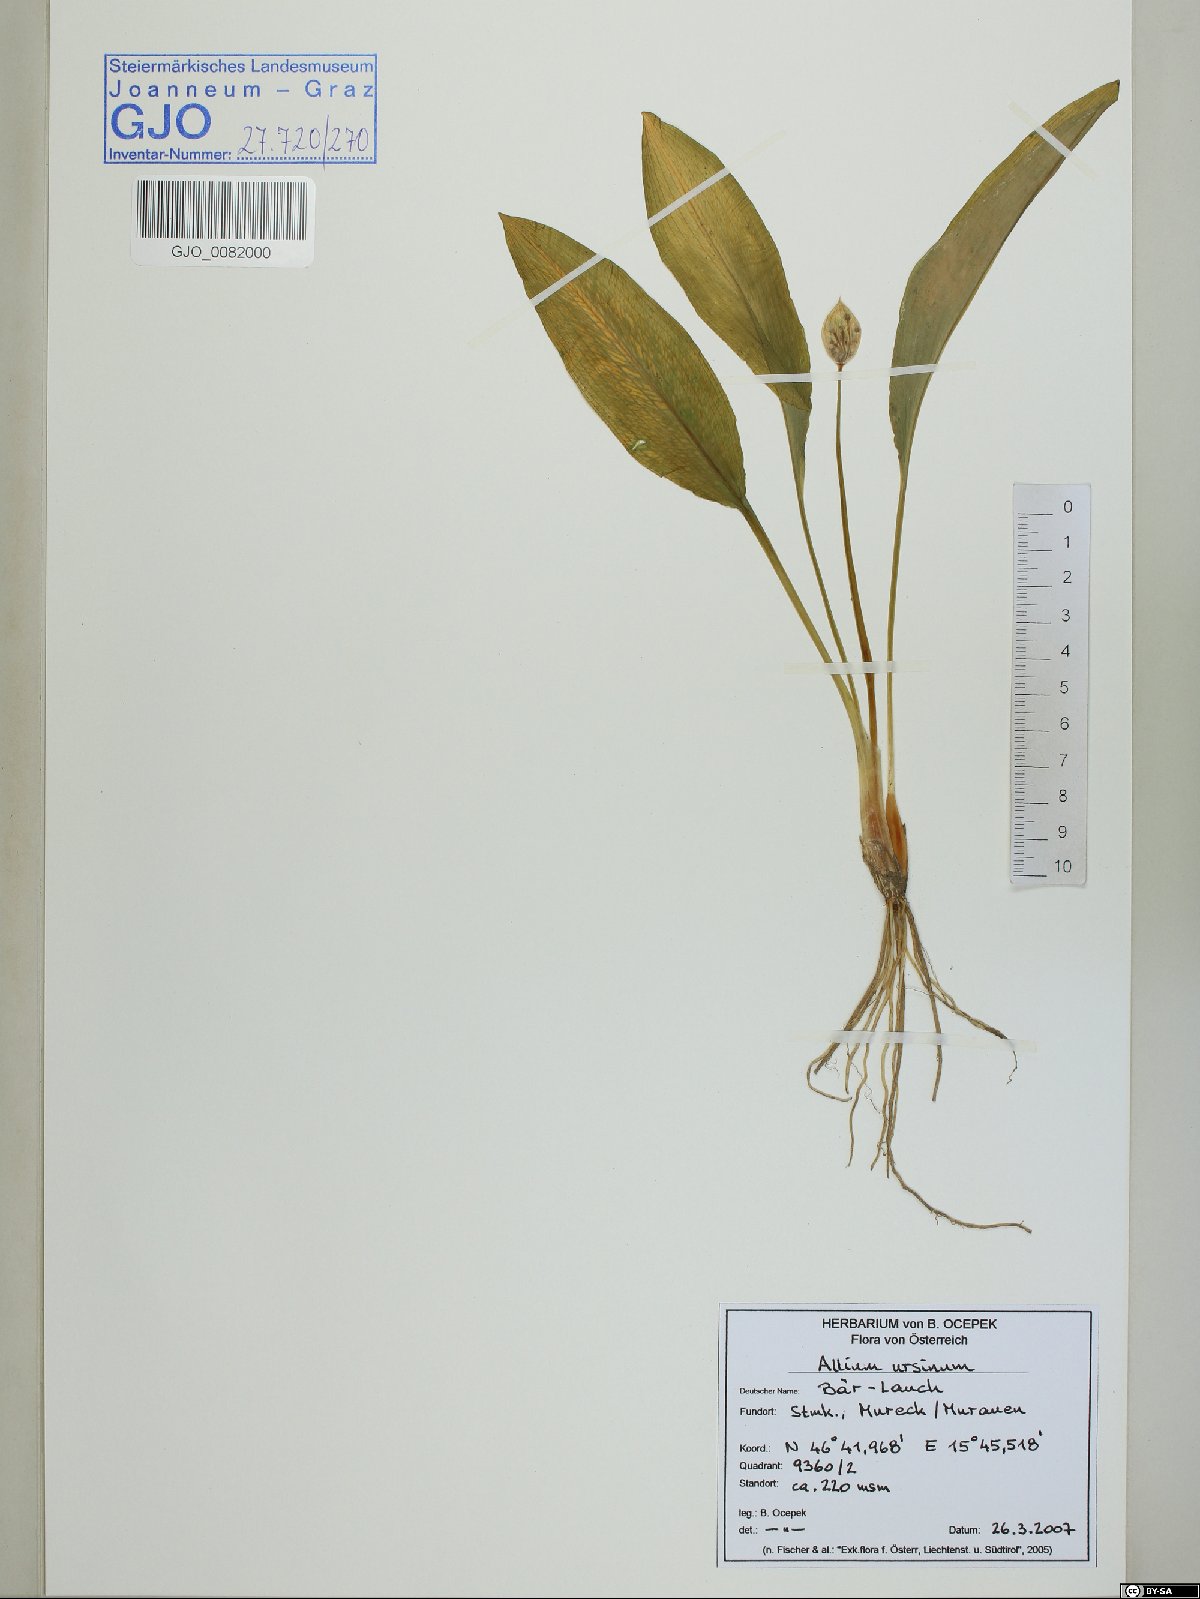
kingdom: Plantae
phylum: Tracheophyta
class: Liliopsida
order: Asparagales
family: Amaryllidaceae
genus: Allium
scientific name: Allium ursinum
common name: Ramsons
